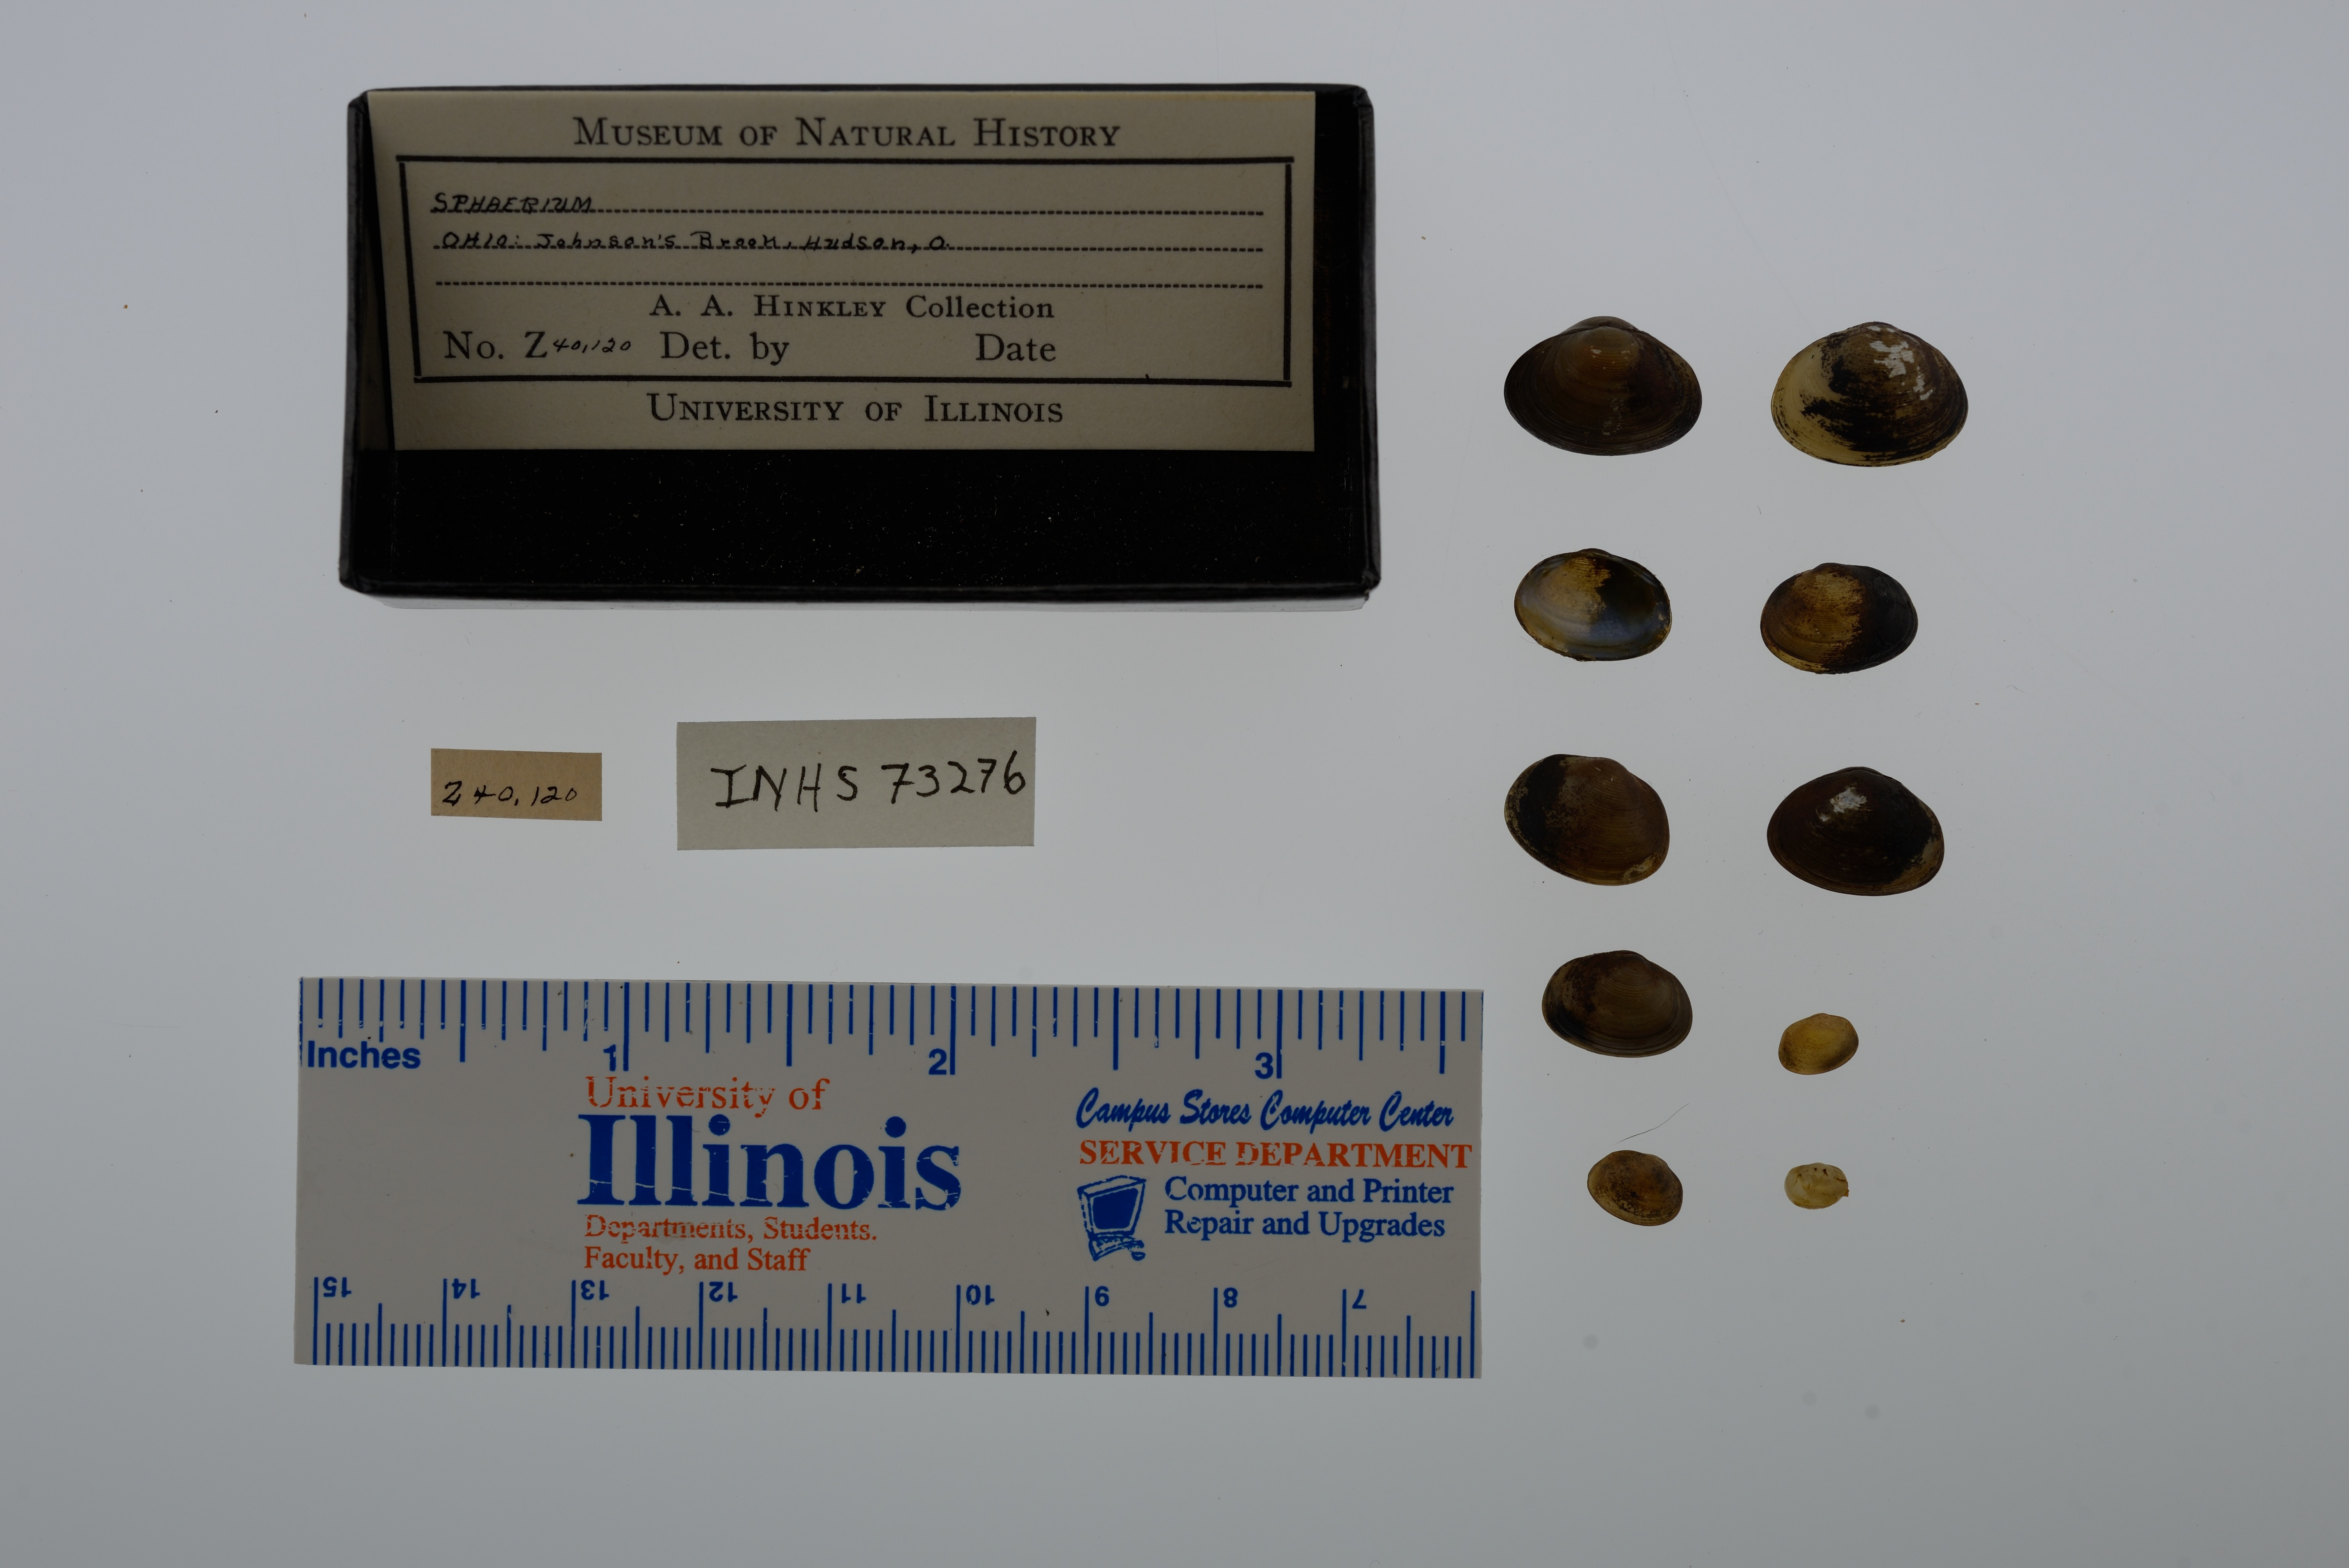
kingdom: Animalia
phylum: Mollusca
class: Bivalvia
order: Sphaeriida
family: Sphaeriidae
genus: Sphaerium
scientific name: Sphaerium
